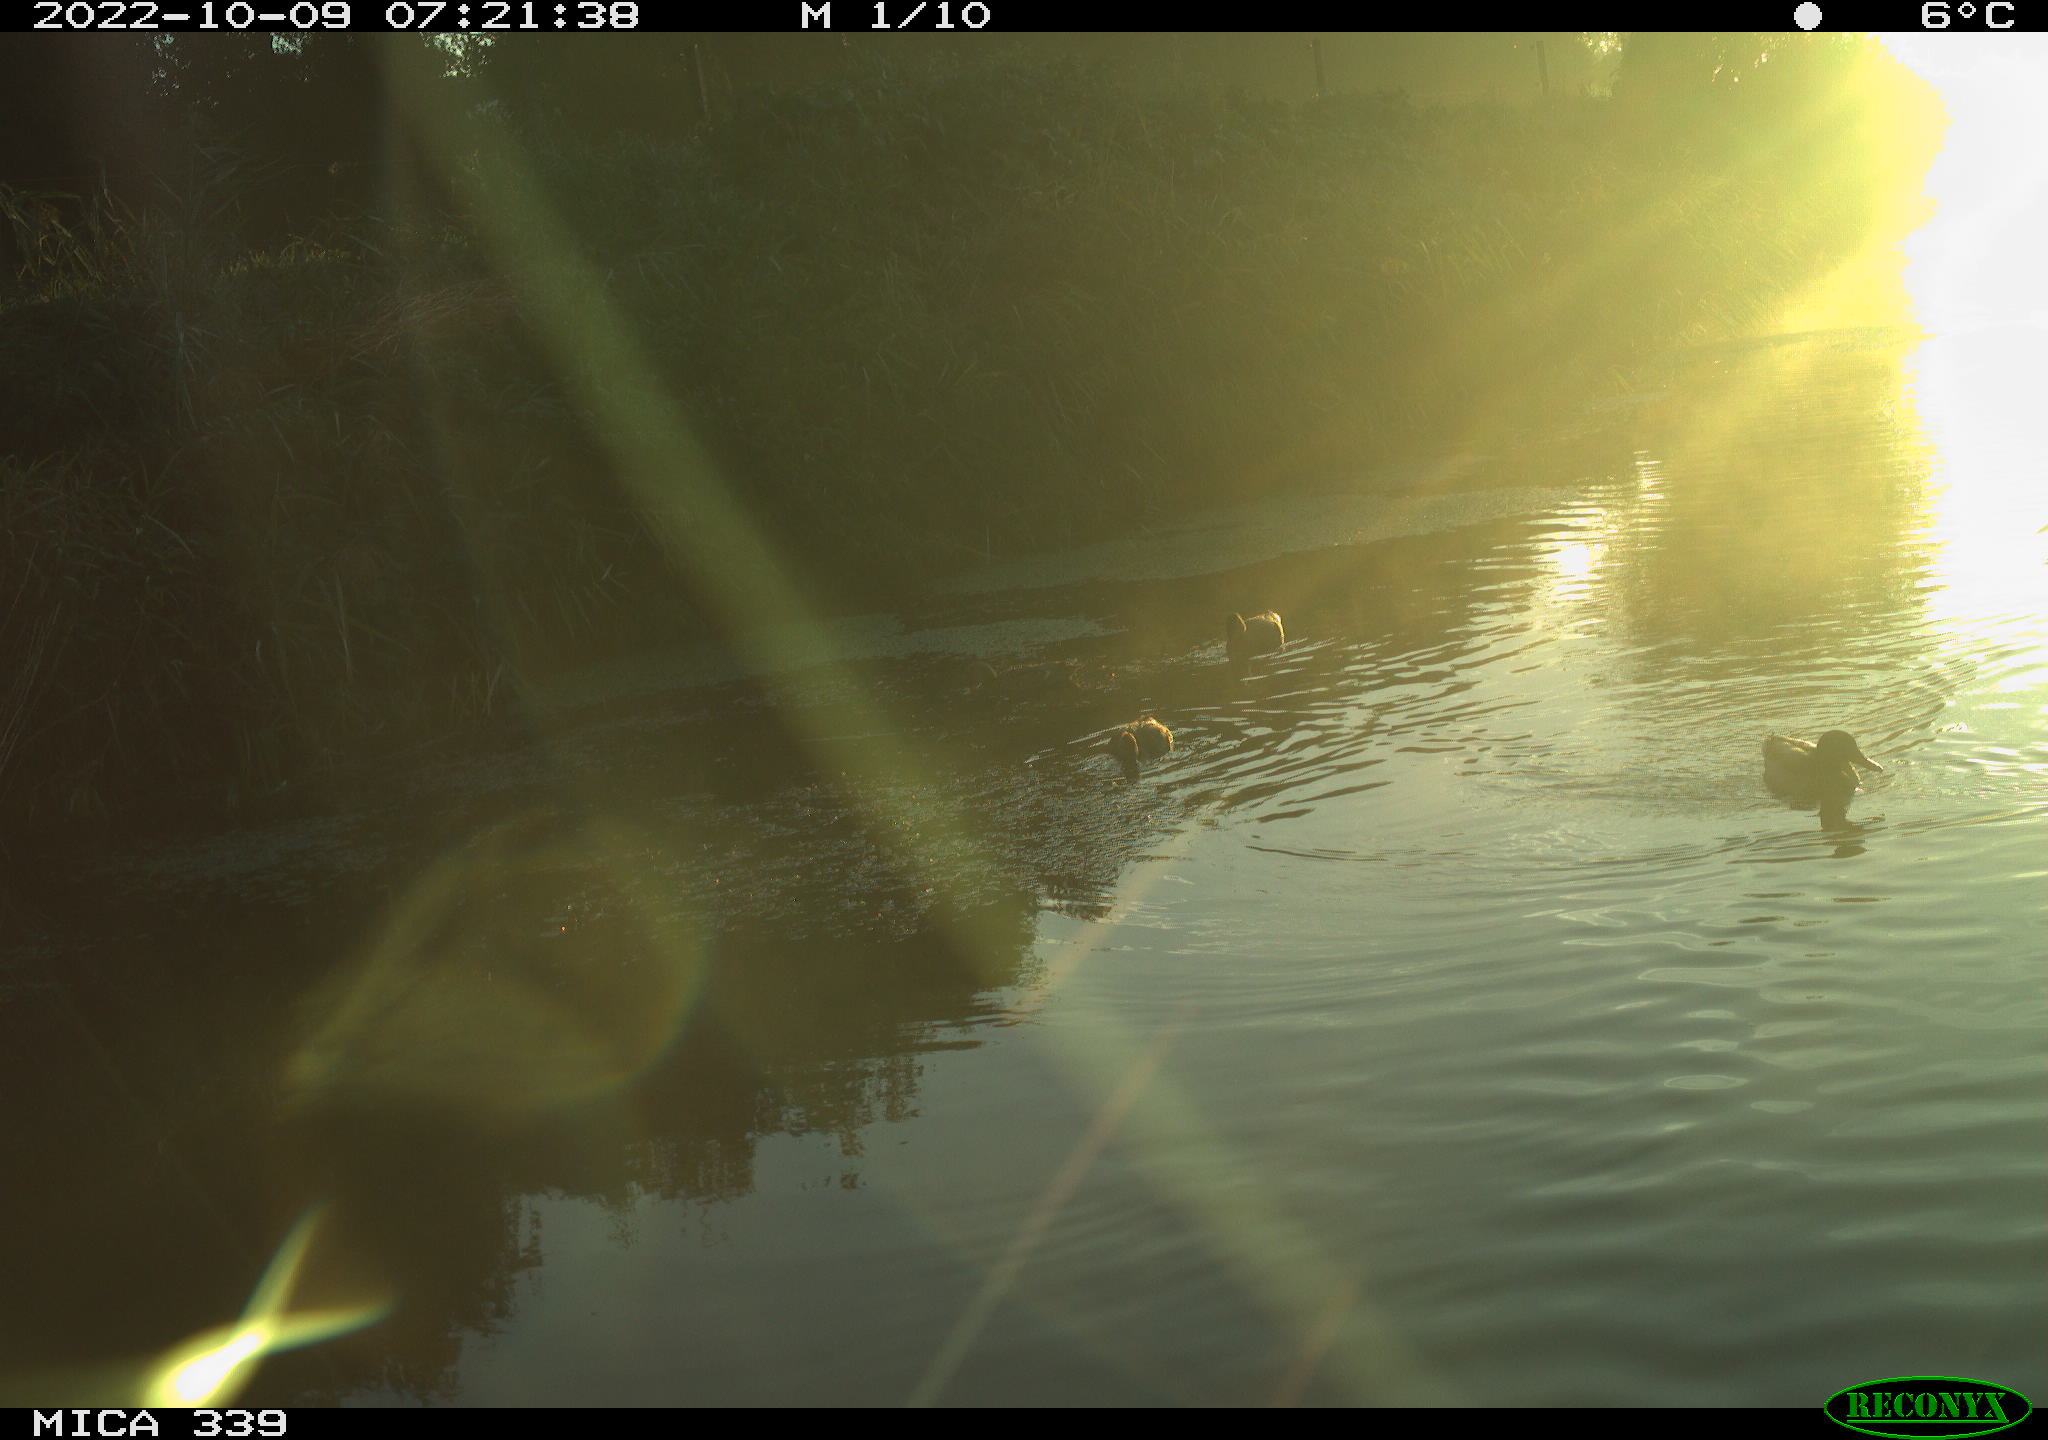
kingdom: Animalia
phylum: Chordata
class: Aves
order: Anseriformes
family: Anatidae
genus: Anas
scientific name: Anas platyrhynchos
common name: Mallard
